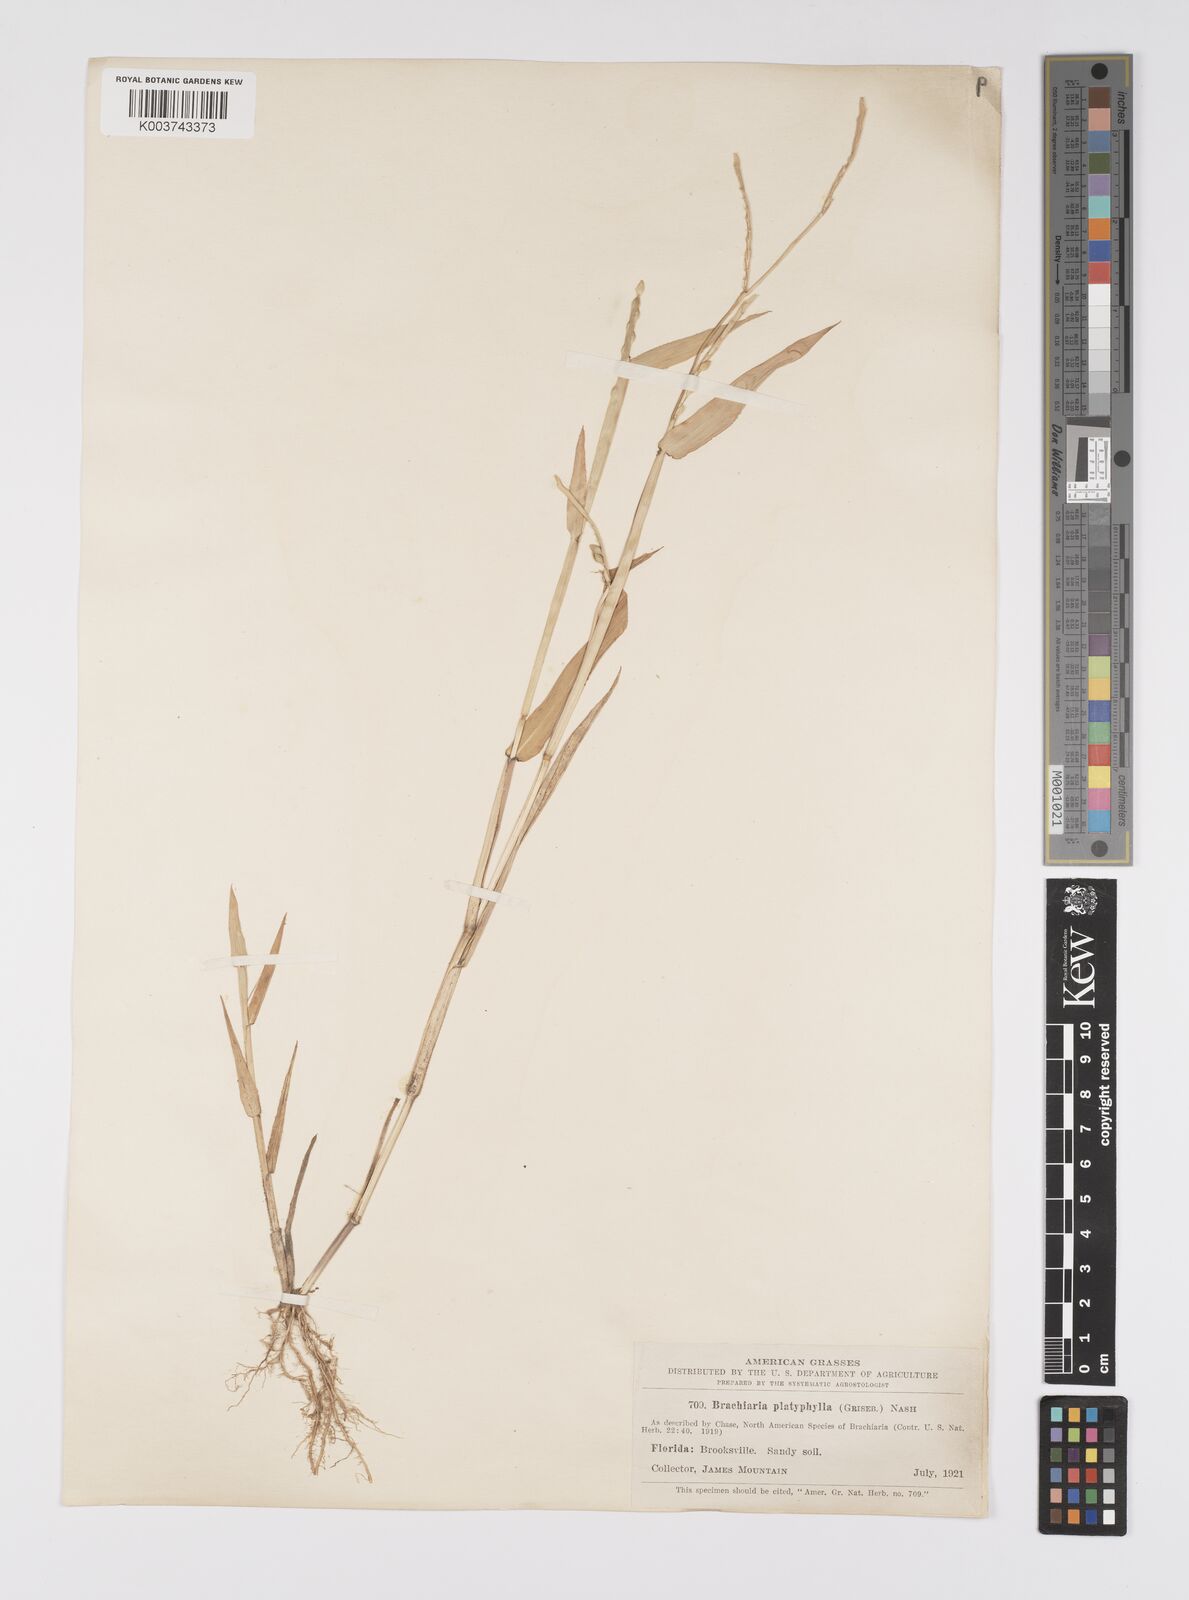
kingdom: Plantae
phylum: Tracheophyta
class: Liliopsida
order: Poales
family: Poaceae
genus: Urochloa
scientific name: Urochloa platyphylla
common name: White para grass
